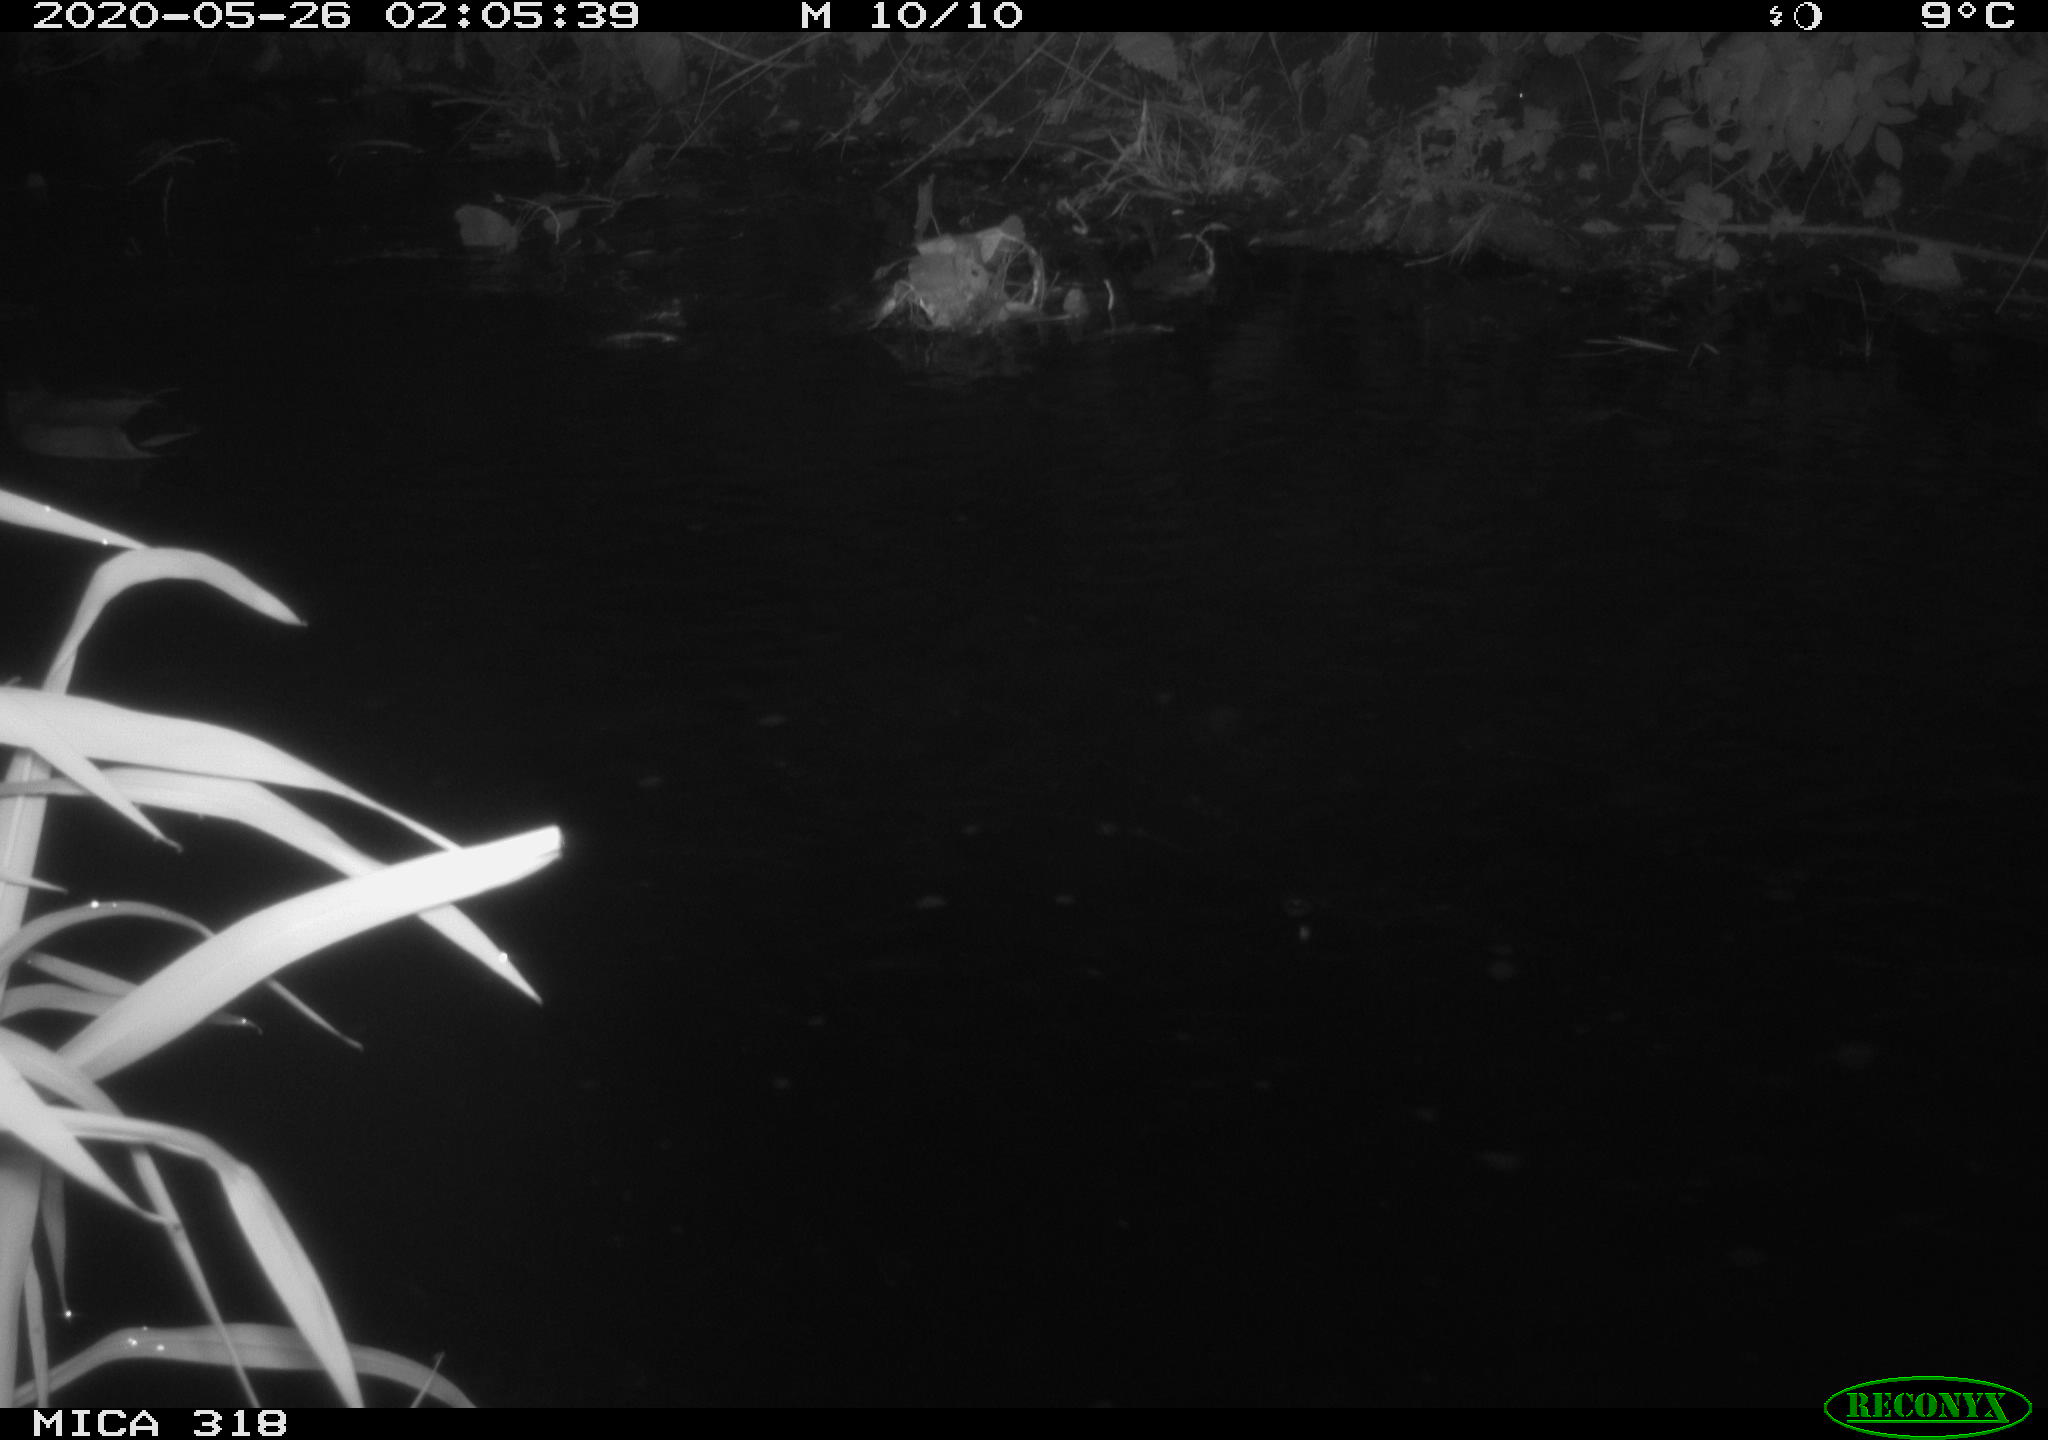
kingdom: Animalia
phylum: Chordata
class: Aves
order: Anseriformes
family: Anatidae
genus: Anas
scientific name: Anas platyrhynchos
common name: Mallard
